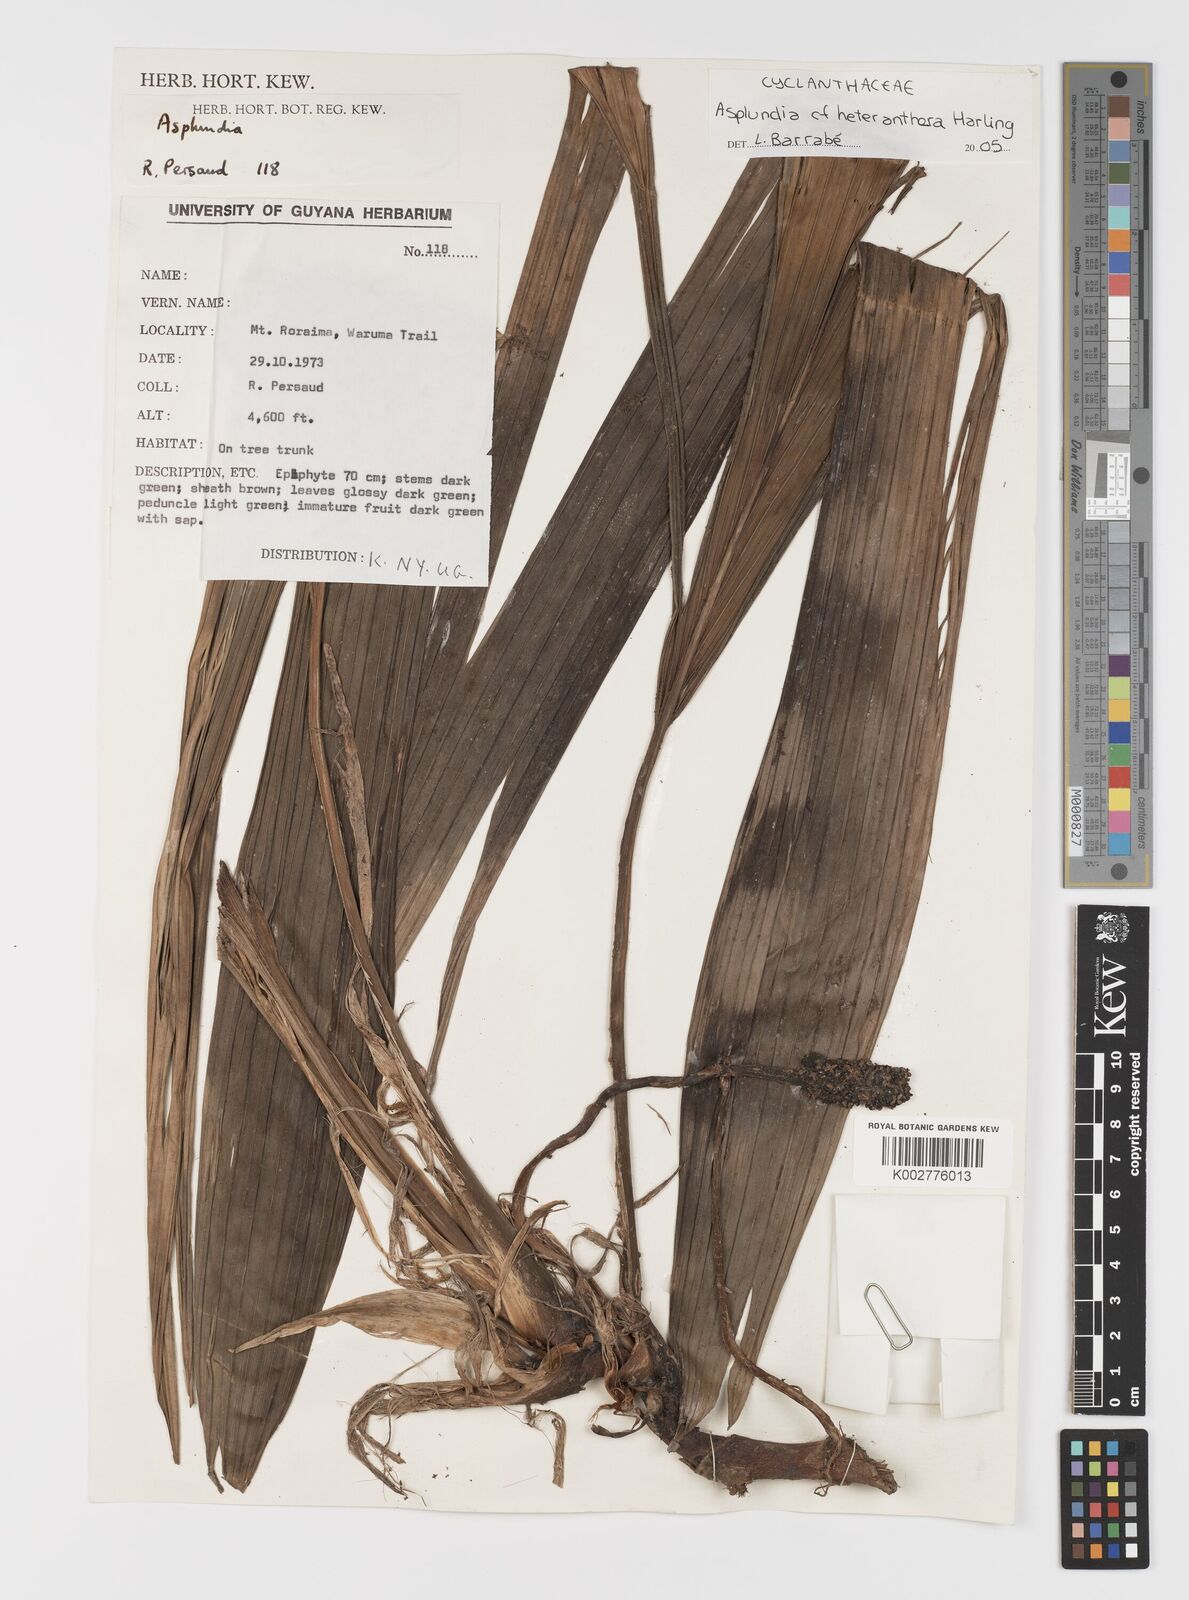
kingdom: Plantae
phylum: Tracheophyta
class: Liliopsida
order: Pandanales
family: Cyclanthaceae
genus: Asplundia
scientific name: Asplundia heteranthera
